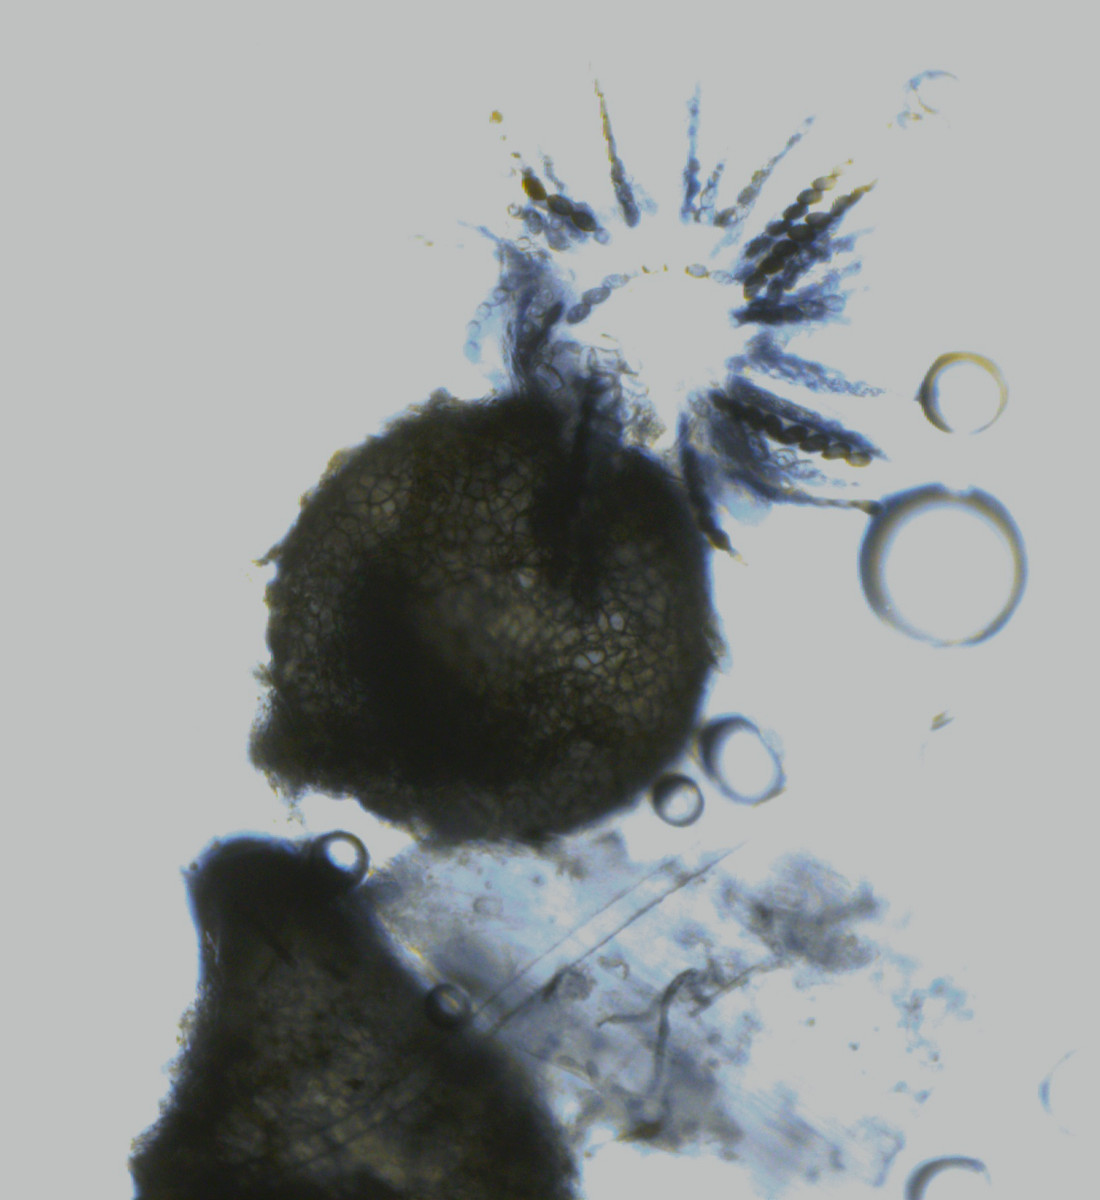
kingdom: Fungi
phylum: Ascomycota
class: Sordariomycetes
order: Sordariales
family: Sordariaceae
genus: Sordaria
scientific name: Sordaria fimicola
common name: gødnings-kernesvamp
